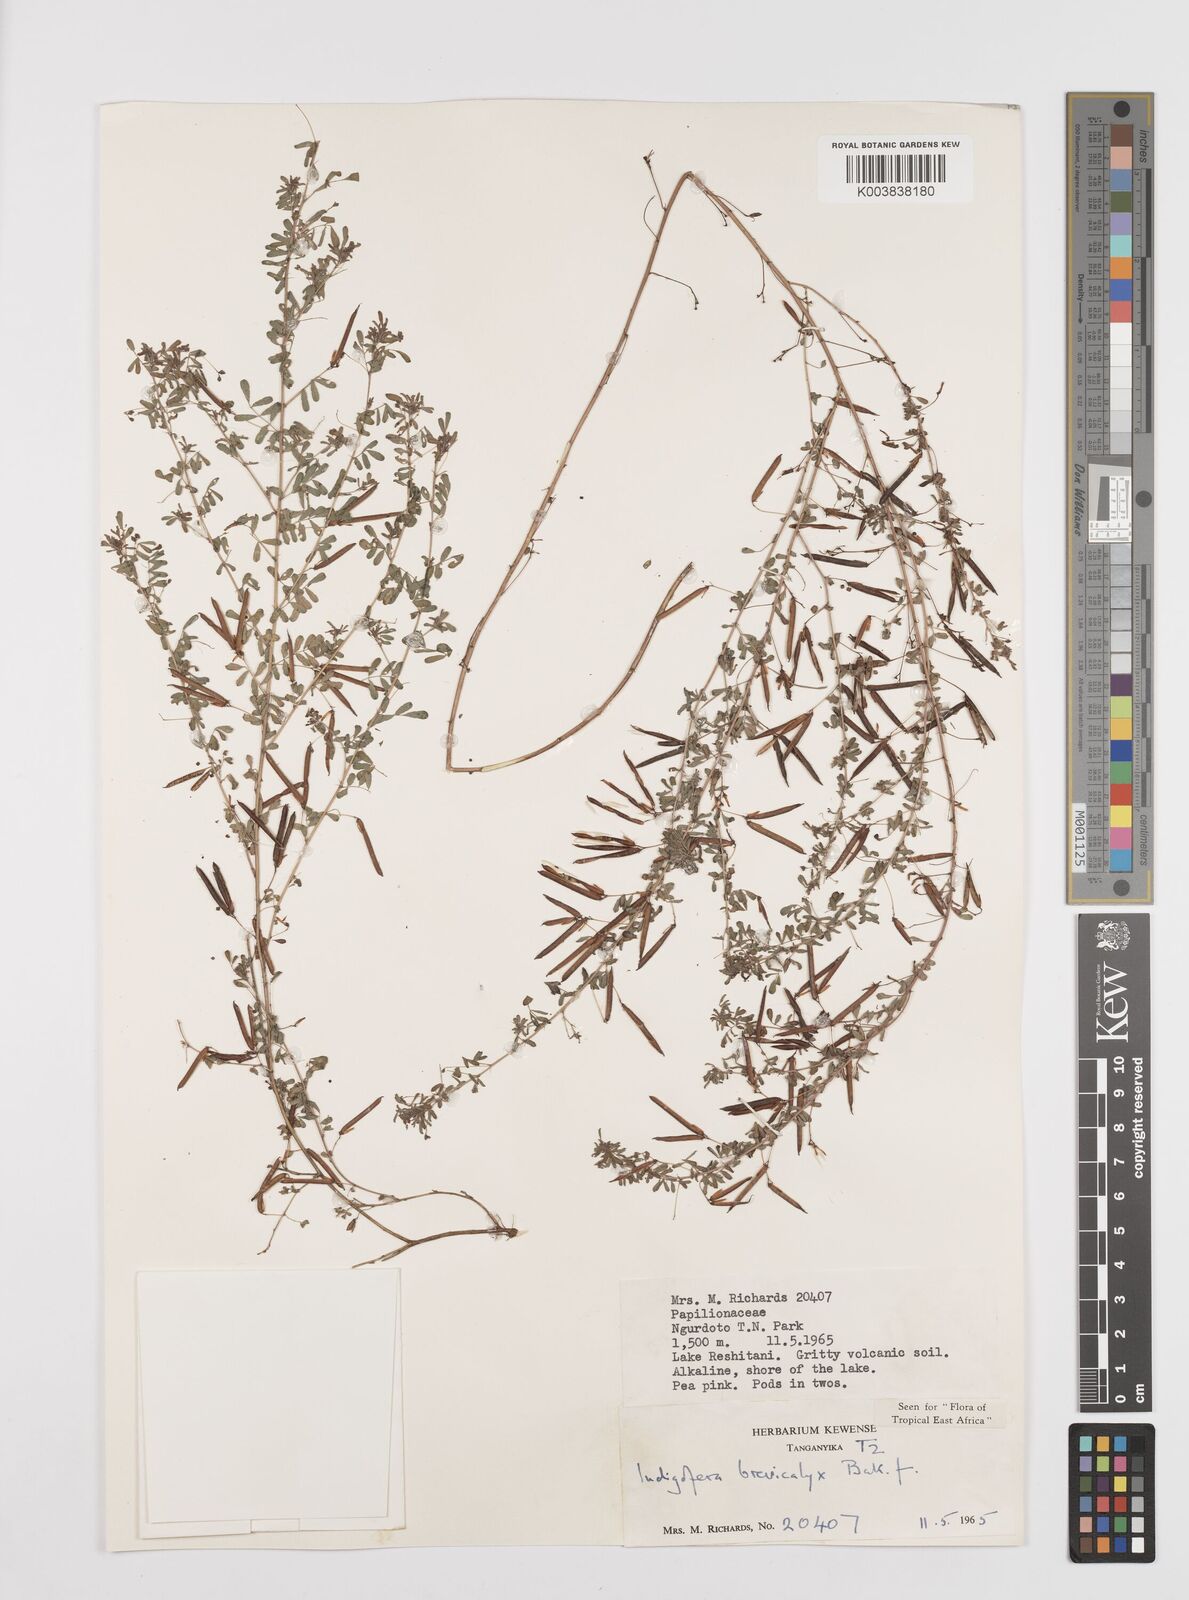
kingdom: Plantae
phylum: Tracheophyta
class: Magnoliopsida
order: Fabales
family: Fabaceae
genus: Indigofera
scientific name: Indigofera brevicalyx
